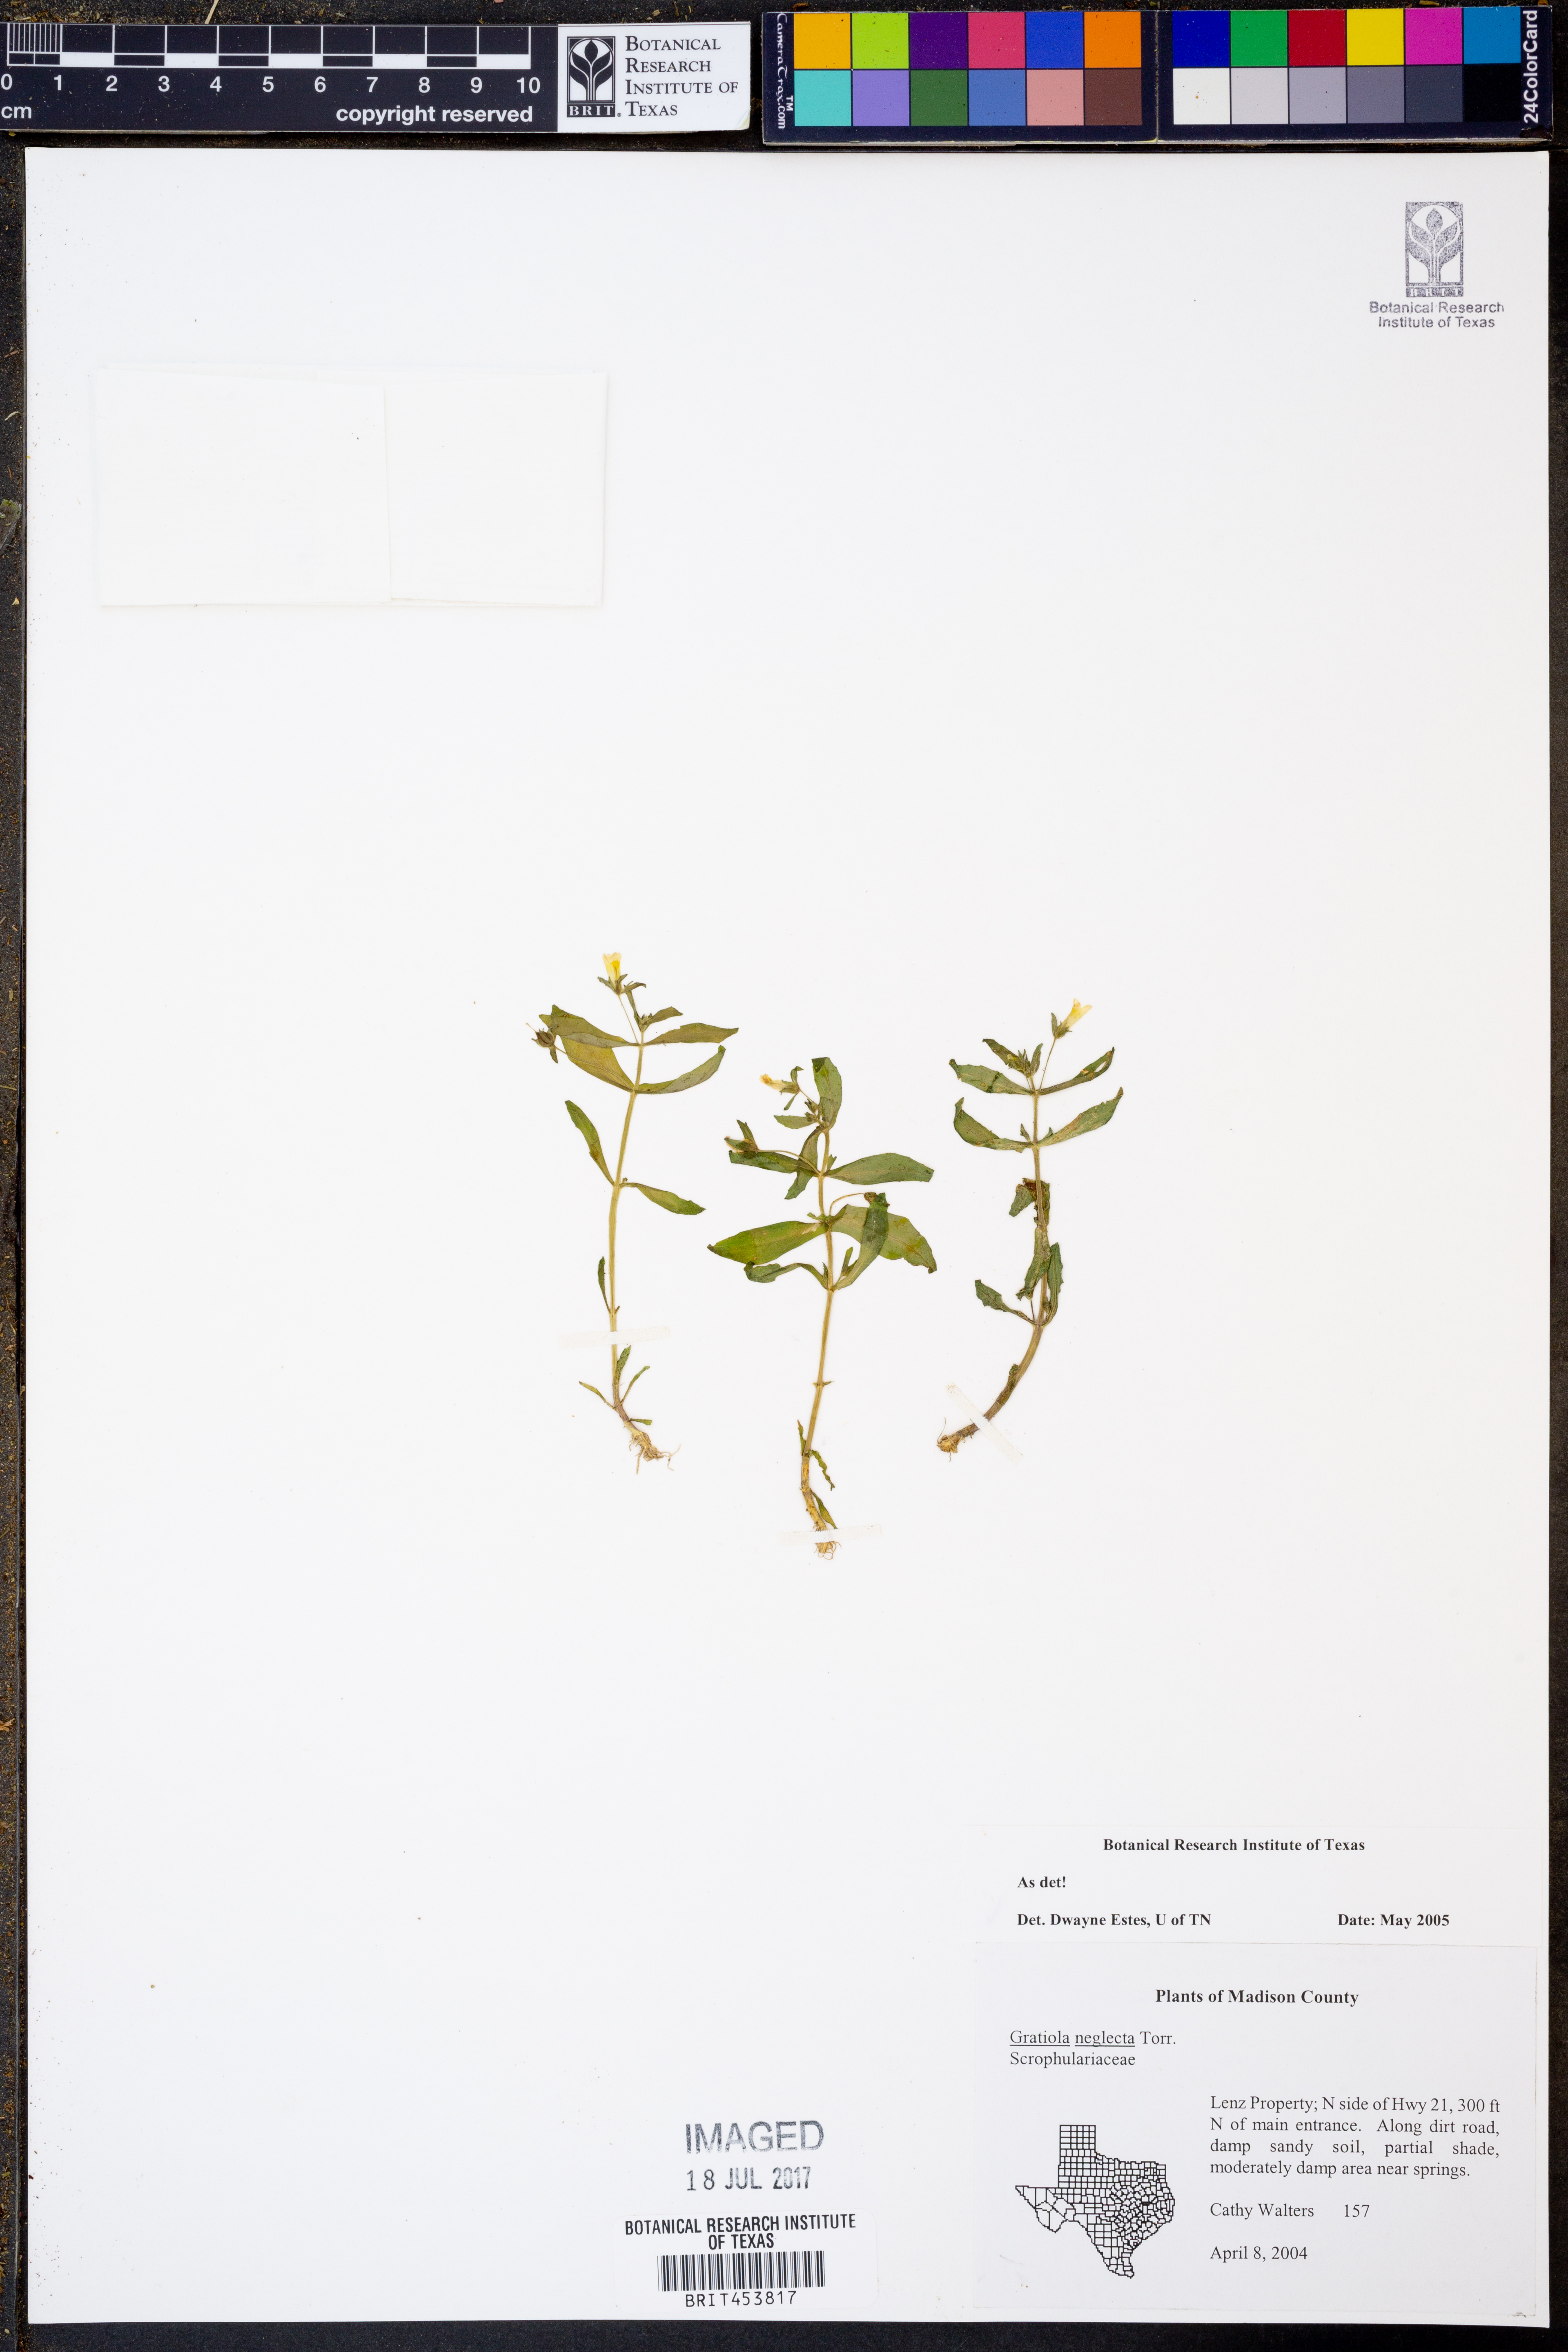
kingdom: Plantae
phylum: Tracheophyta
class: Magnoliopsida
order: Lamiales
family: Plantaginaceae
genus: Gratiola
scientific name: Gratiola neglecta
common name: American hedge-hyssop
